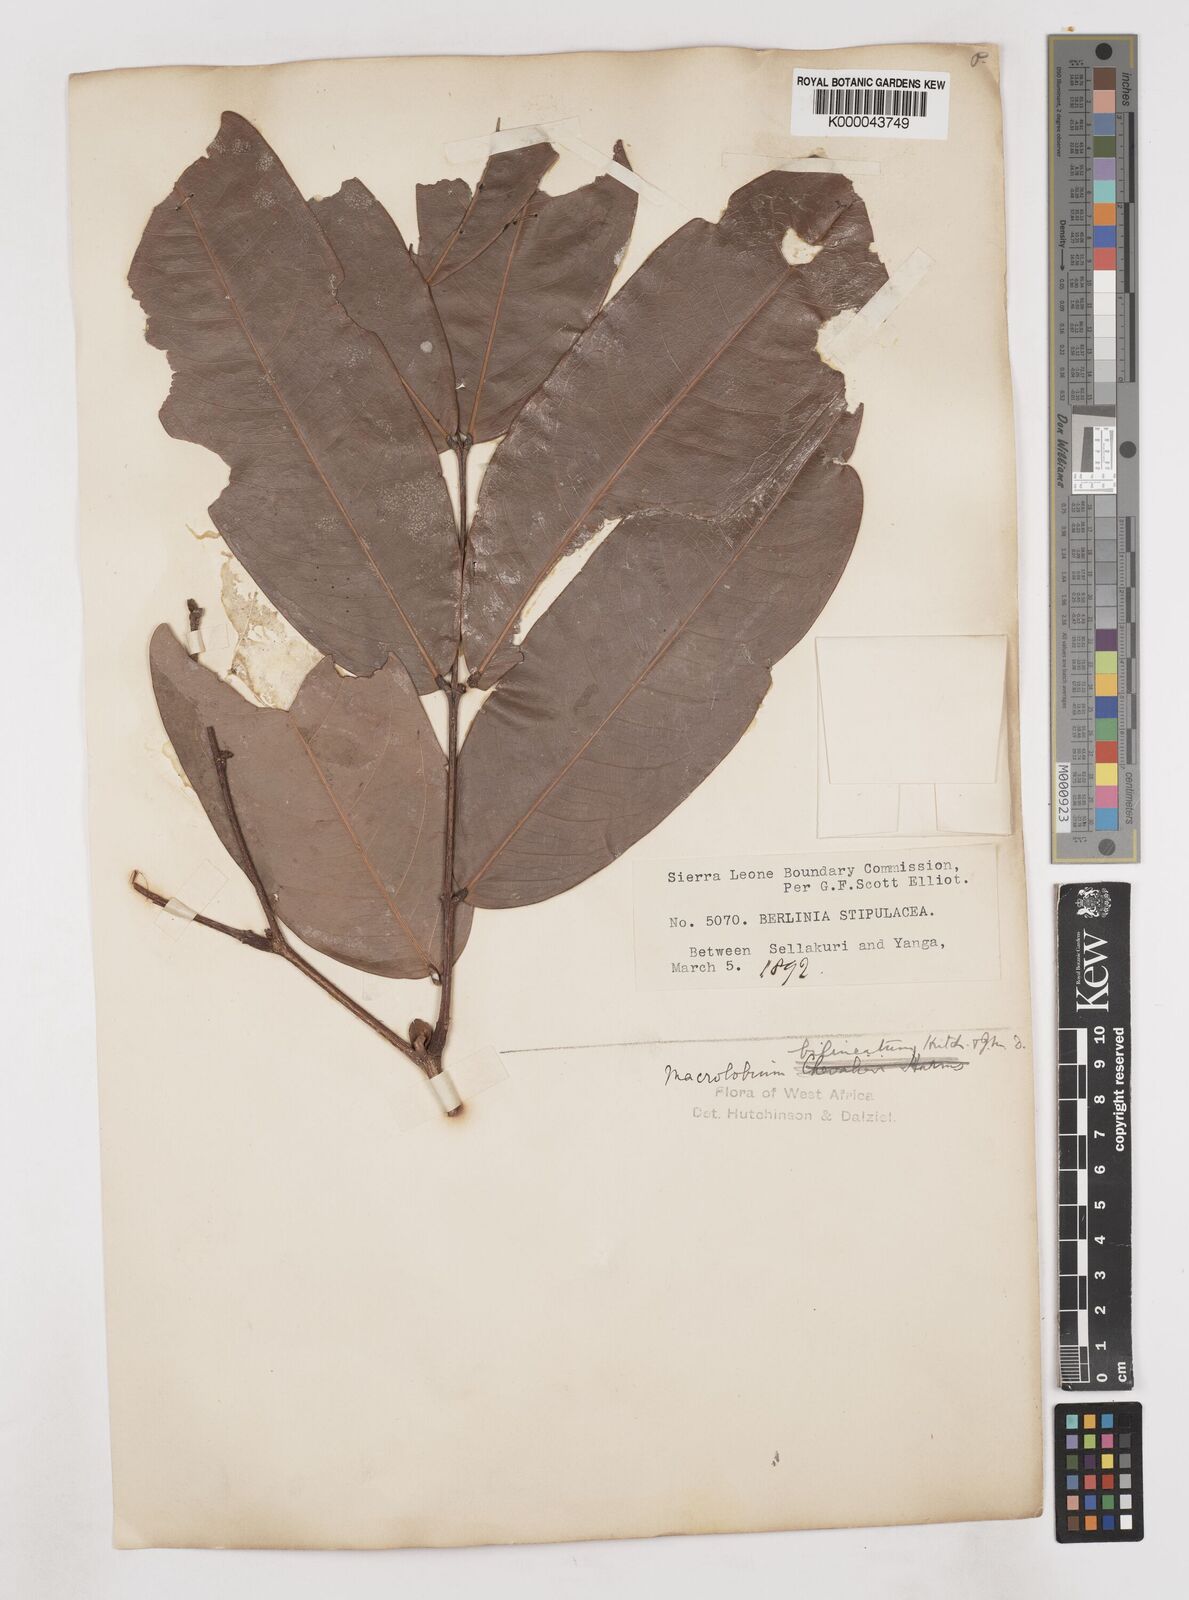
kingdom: Plantae
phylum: Tracheophyta
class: Magnoliopsida
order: Fabales
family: Fabaceae
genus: Gilbertiodendron
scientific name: Gilbertiodendron
